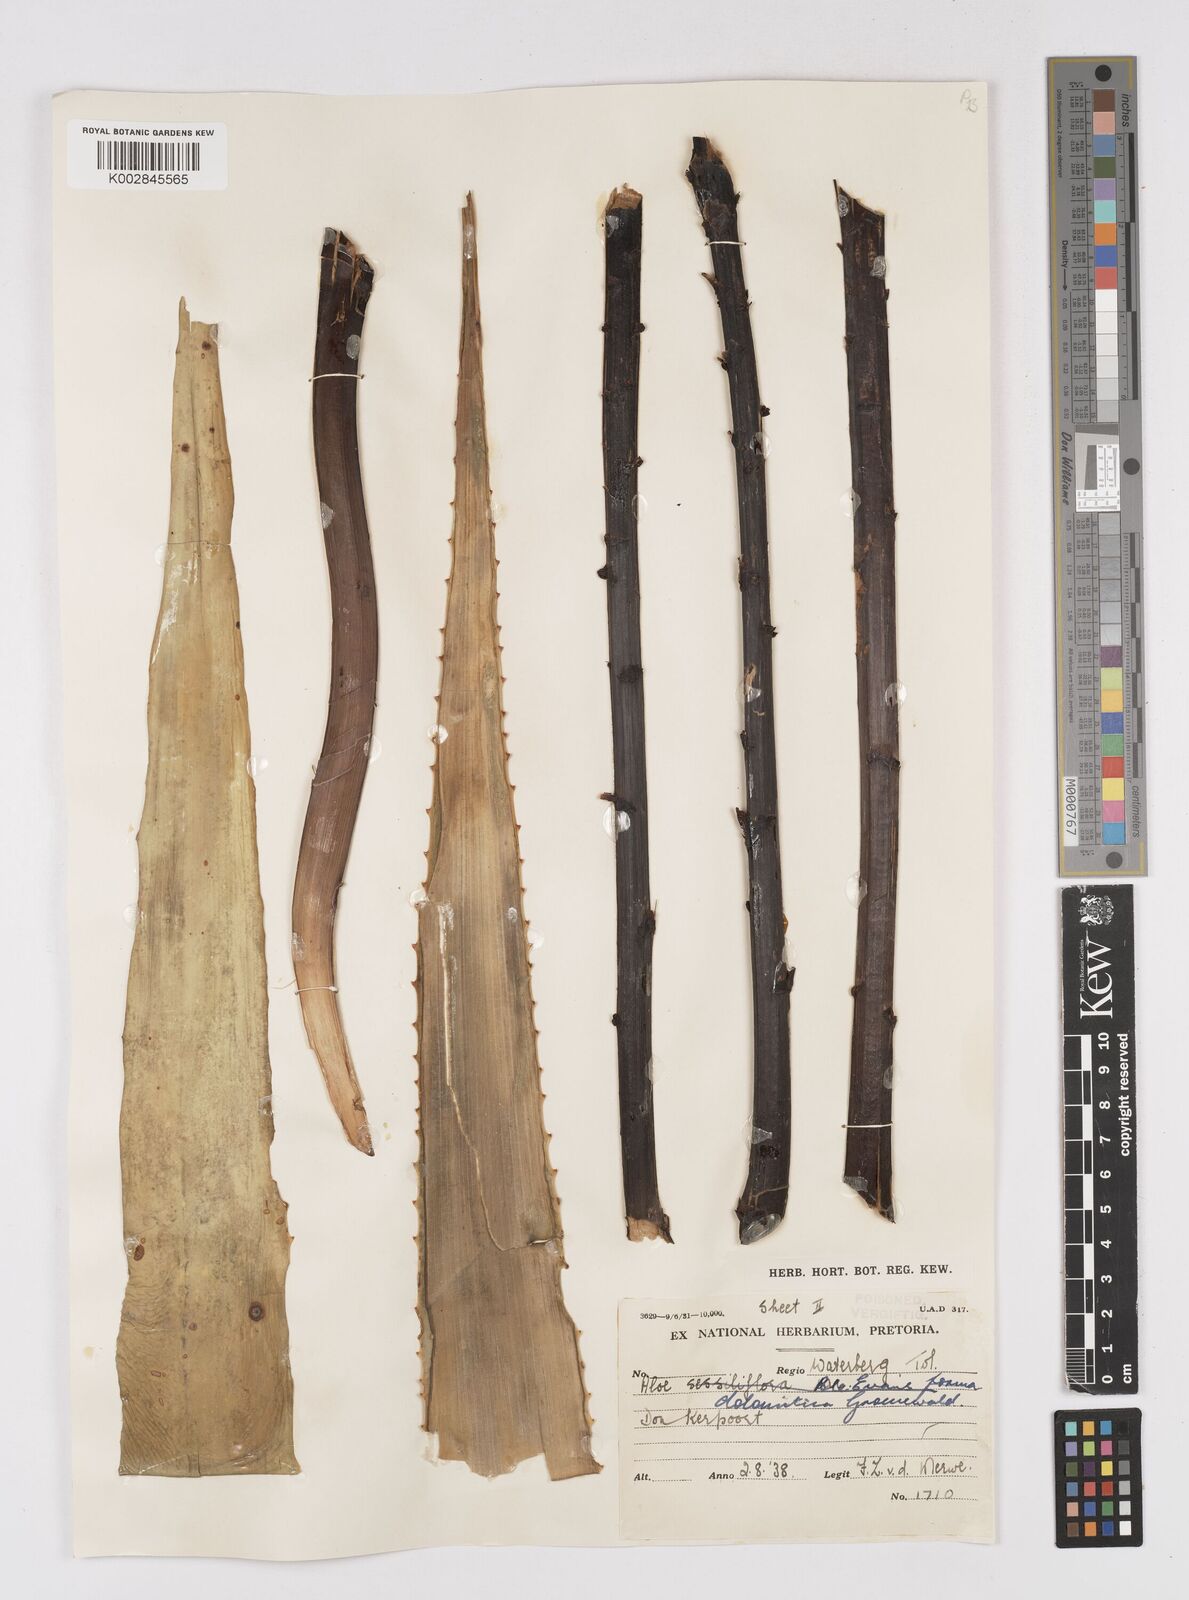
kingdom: Plantae
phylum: Tracheophyta
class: Liliopsida
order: Asparagales
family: Asphodelaceae
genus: Aloe
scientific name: Aloe vryheidensis
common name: Vryheid aloe
